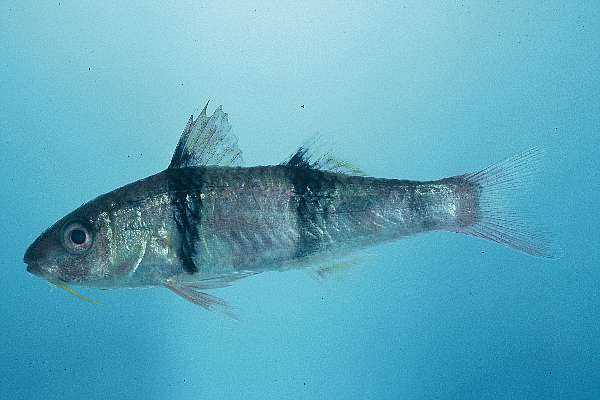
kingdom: Animalia
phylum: Chordata
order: Perciformes
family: Mullidae
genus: Parupeneus
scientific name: Parupeneus trifasciatus
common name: Doublebar goatfish
